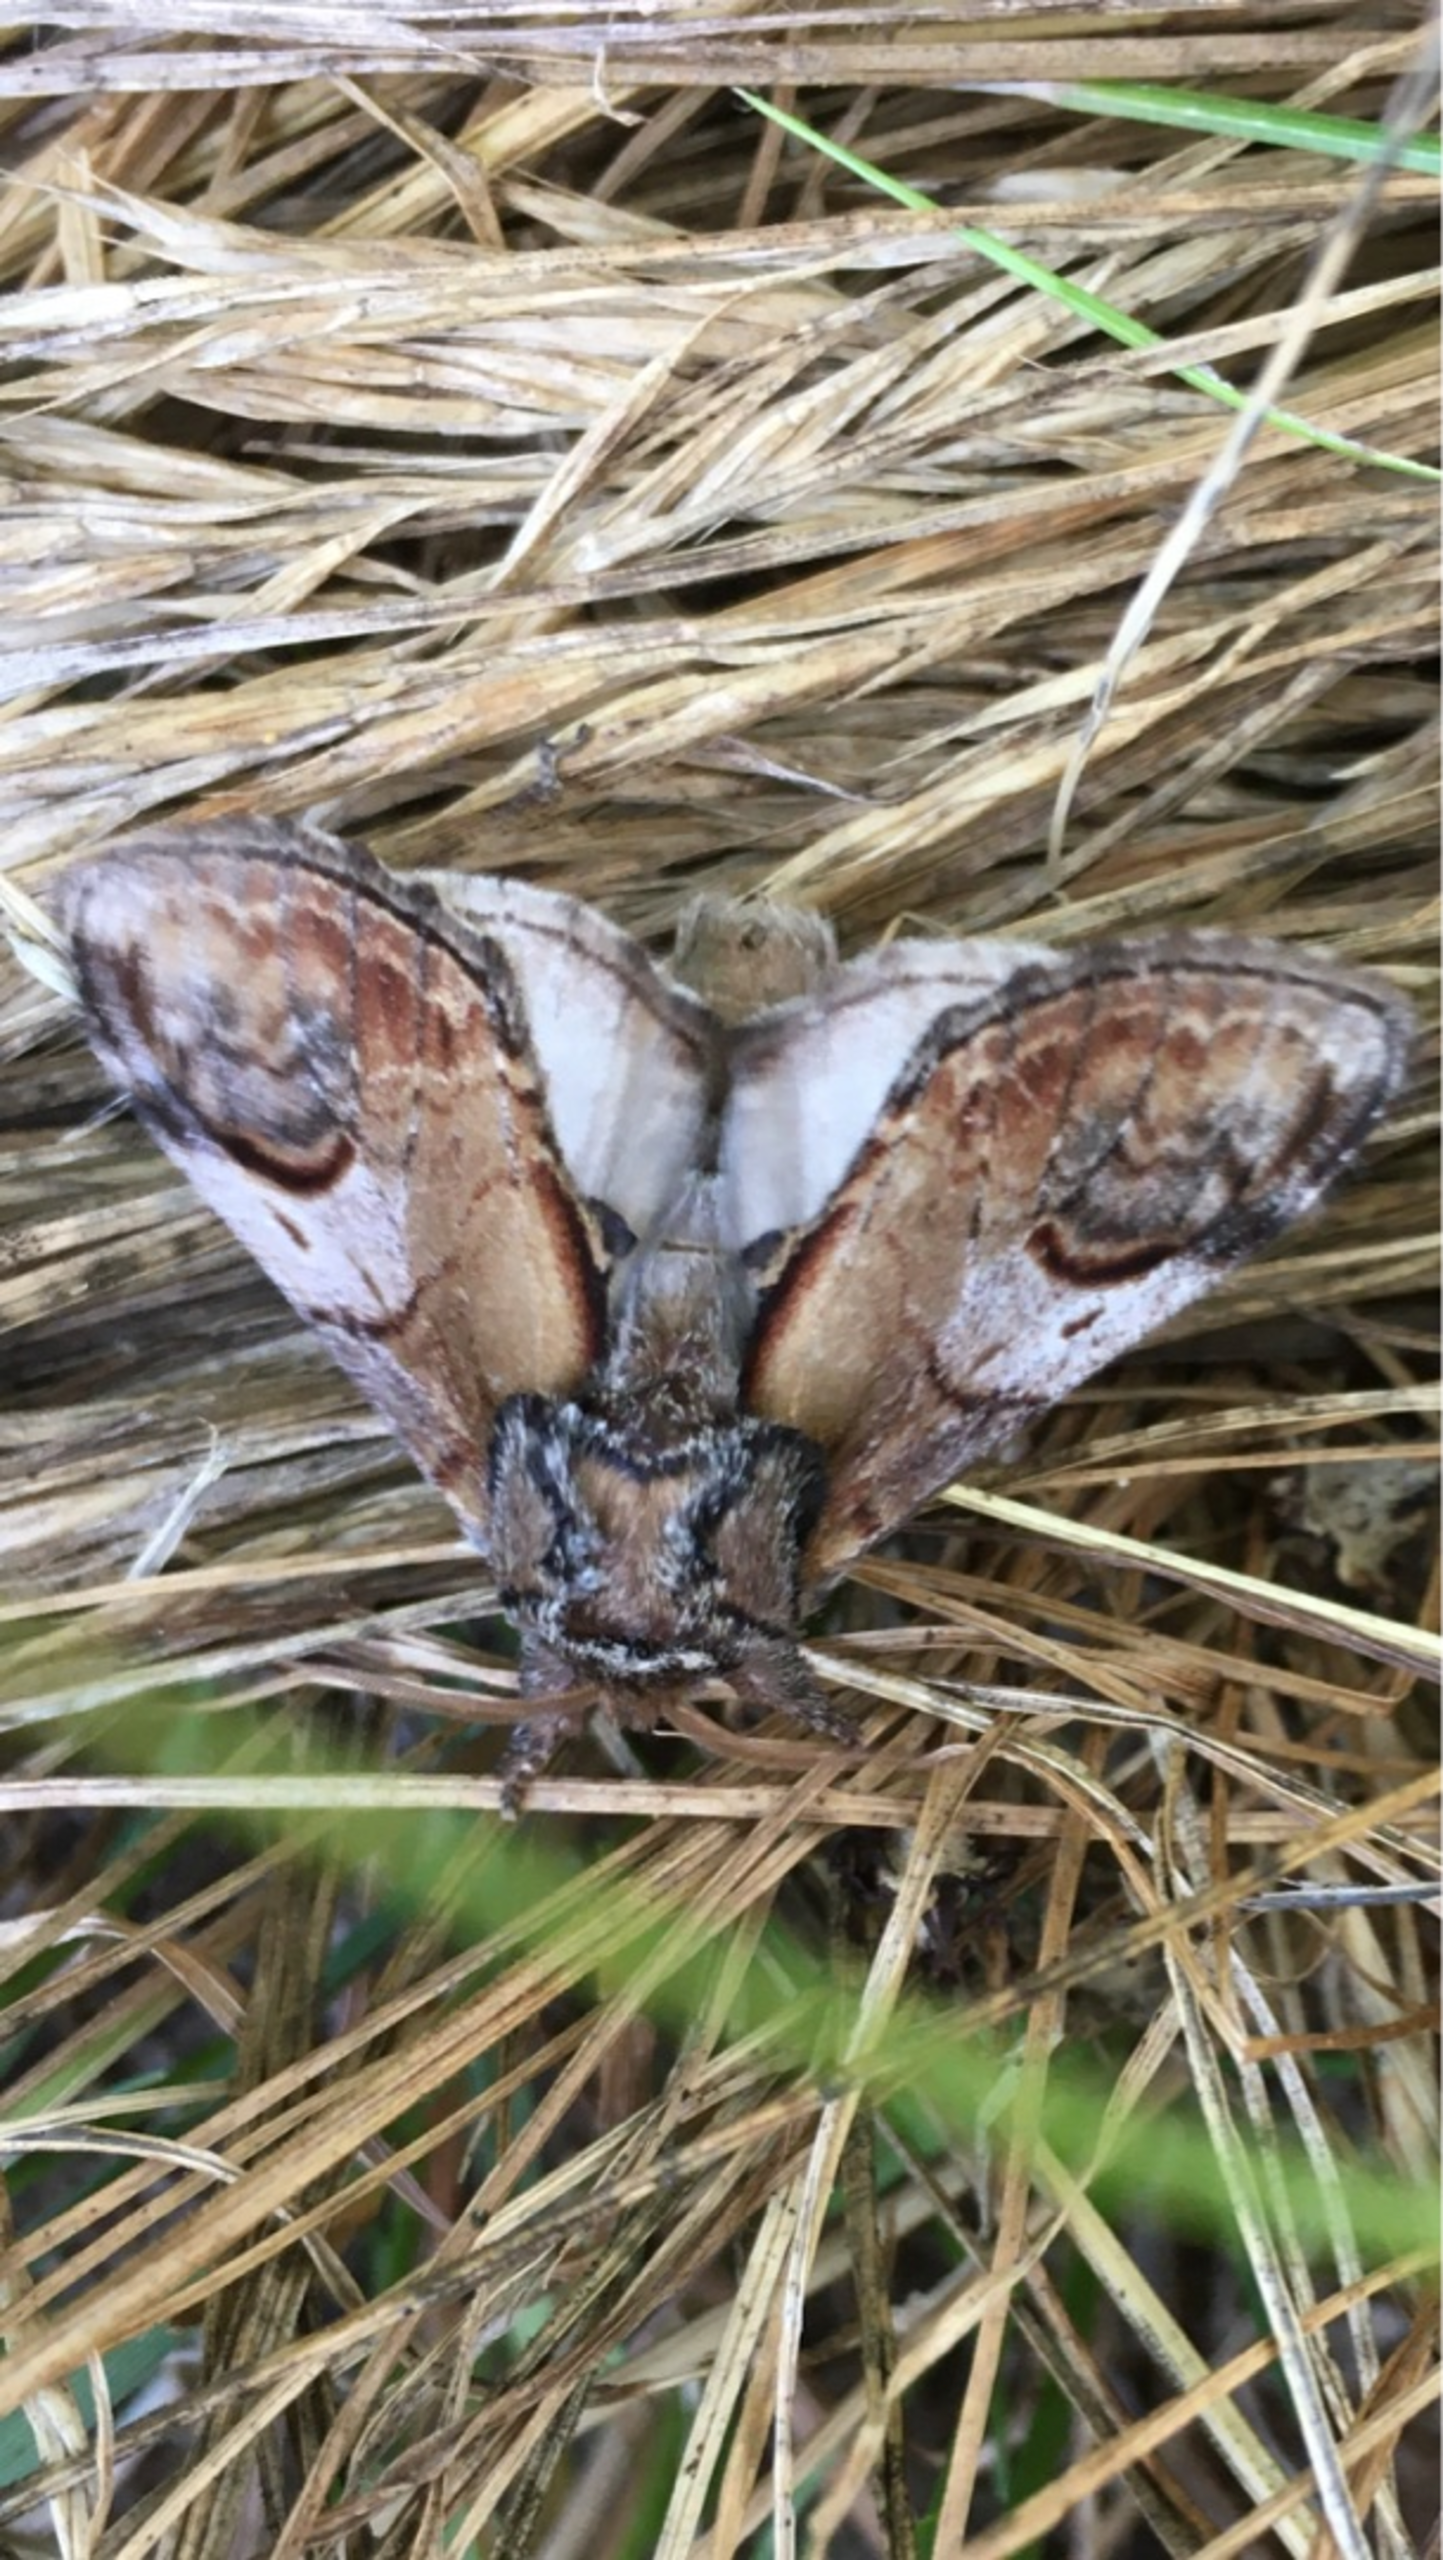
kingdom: Animalia
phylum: Arthropoda
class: Insecta
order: Lepidoptera
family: Notodontidae
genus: Notodonta
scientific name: Notodonta ziczac
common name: Zigzagspinder
